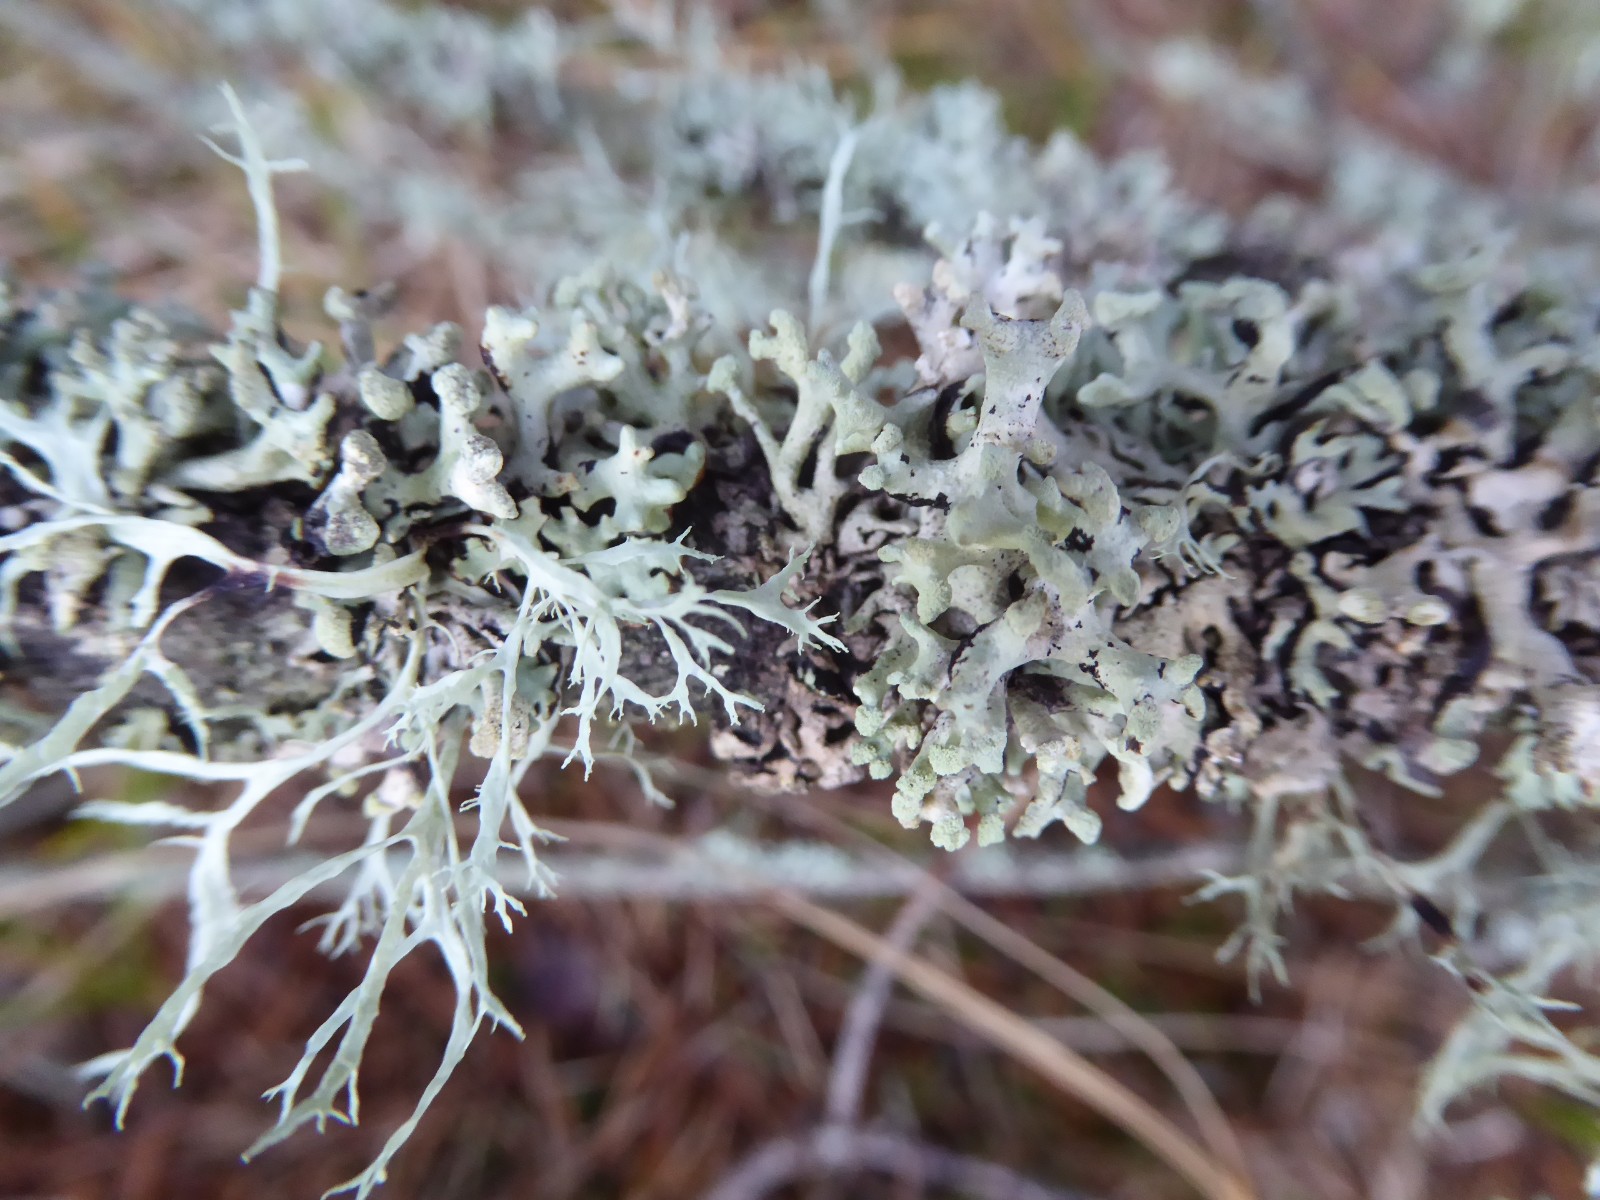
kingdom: Fungi
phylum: Ascomycota
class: Lecanoromycetes
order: Lecanorales
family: Parmeliaceae
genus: Hypogymnia
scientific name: Hypogymnia tubulosa
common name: finger-kvistlav
